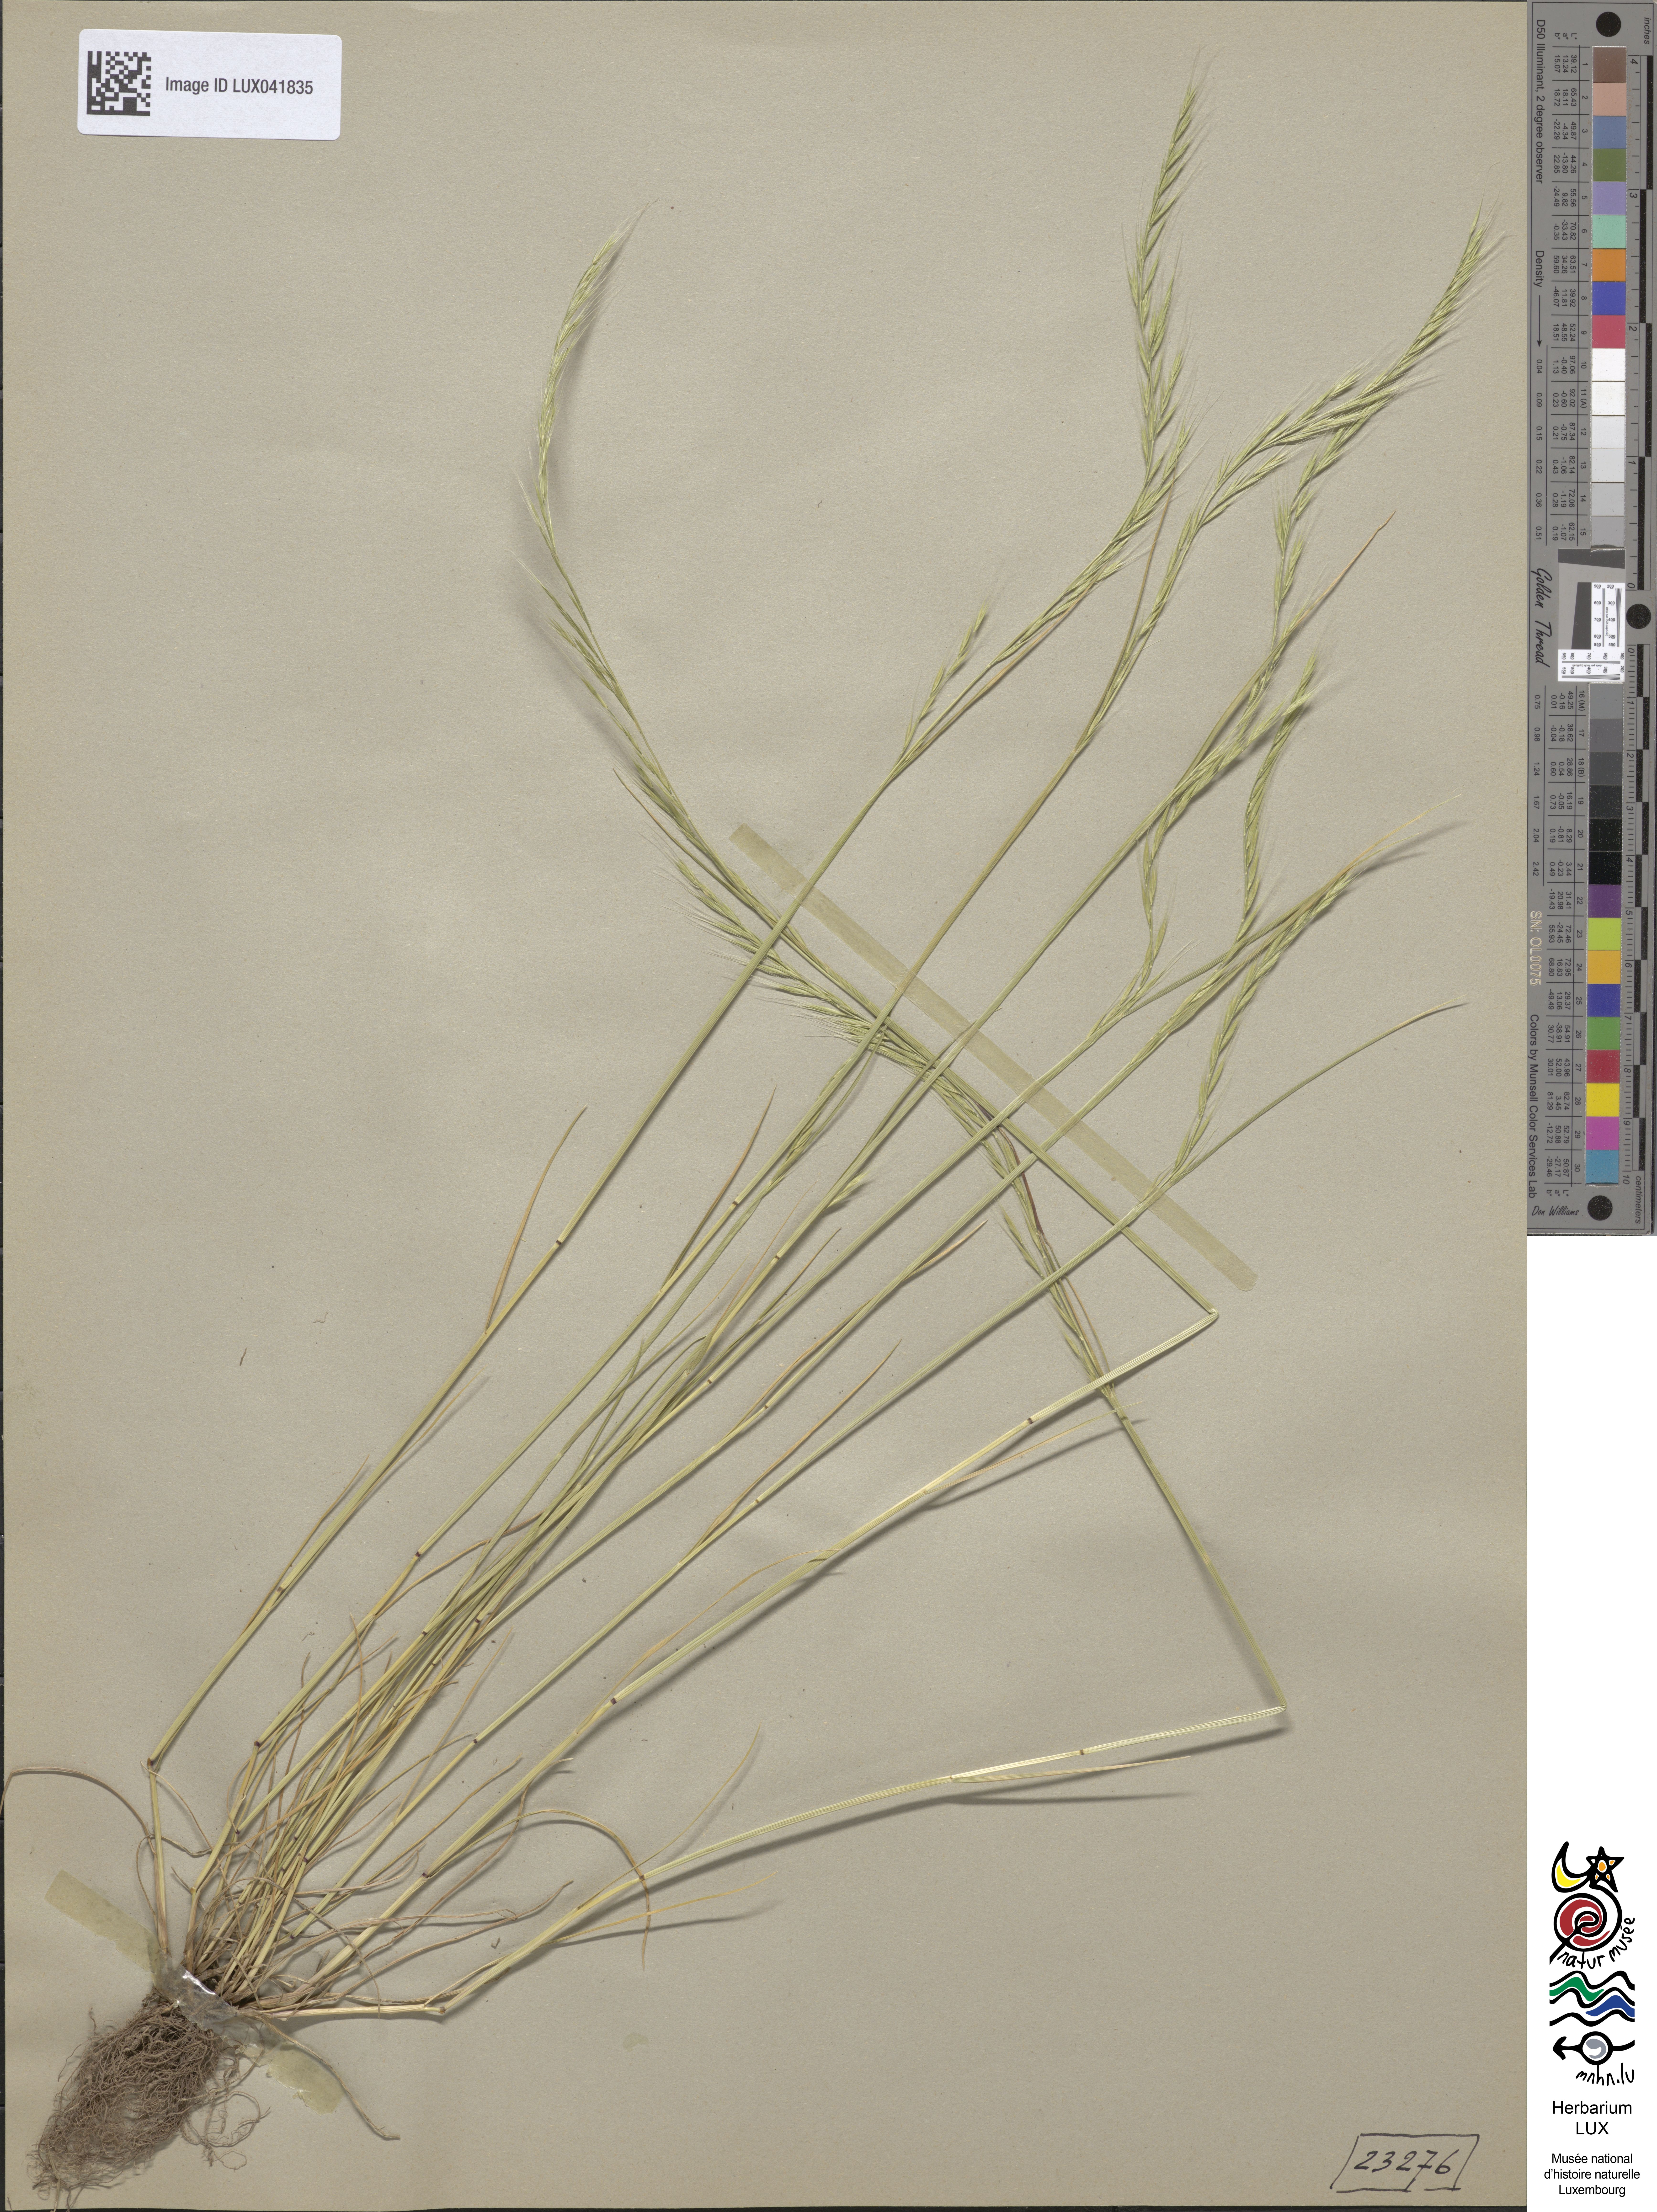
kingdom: Plantae
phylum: Tracheophyta
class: Liliopsida
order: Poales
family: Poaceae
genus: Festuca
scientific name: Festuca myuros
